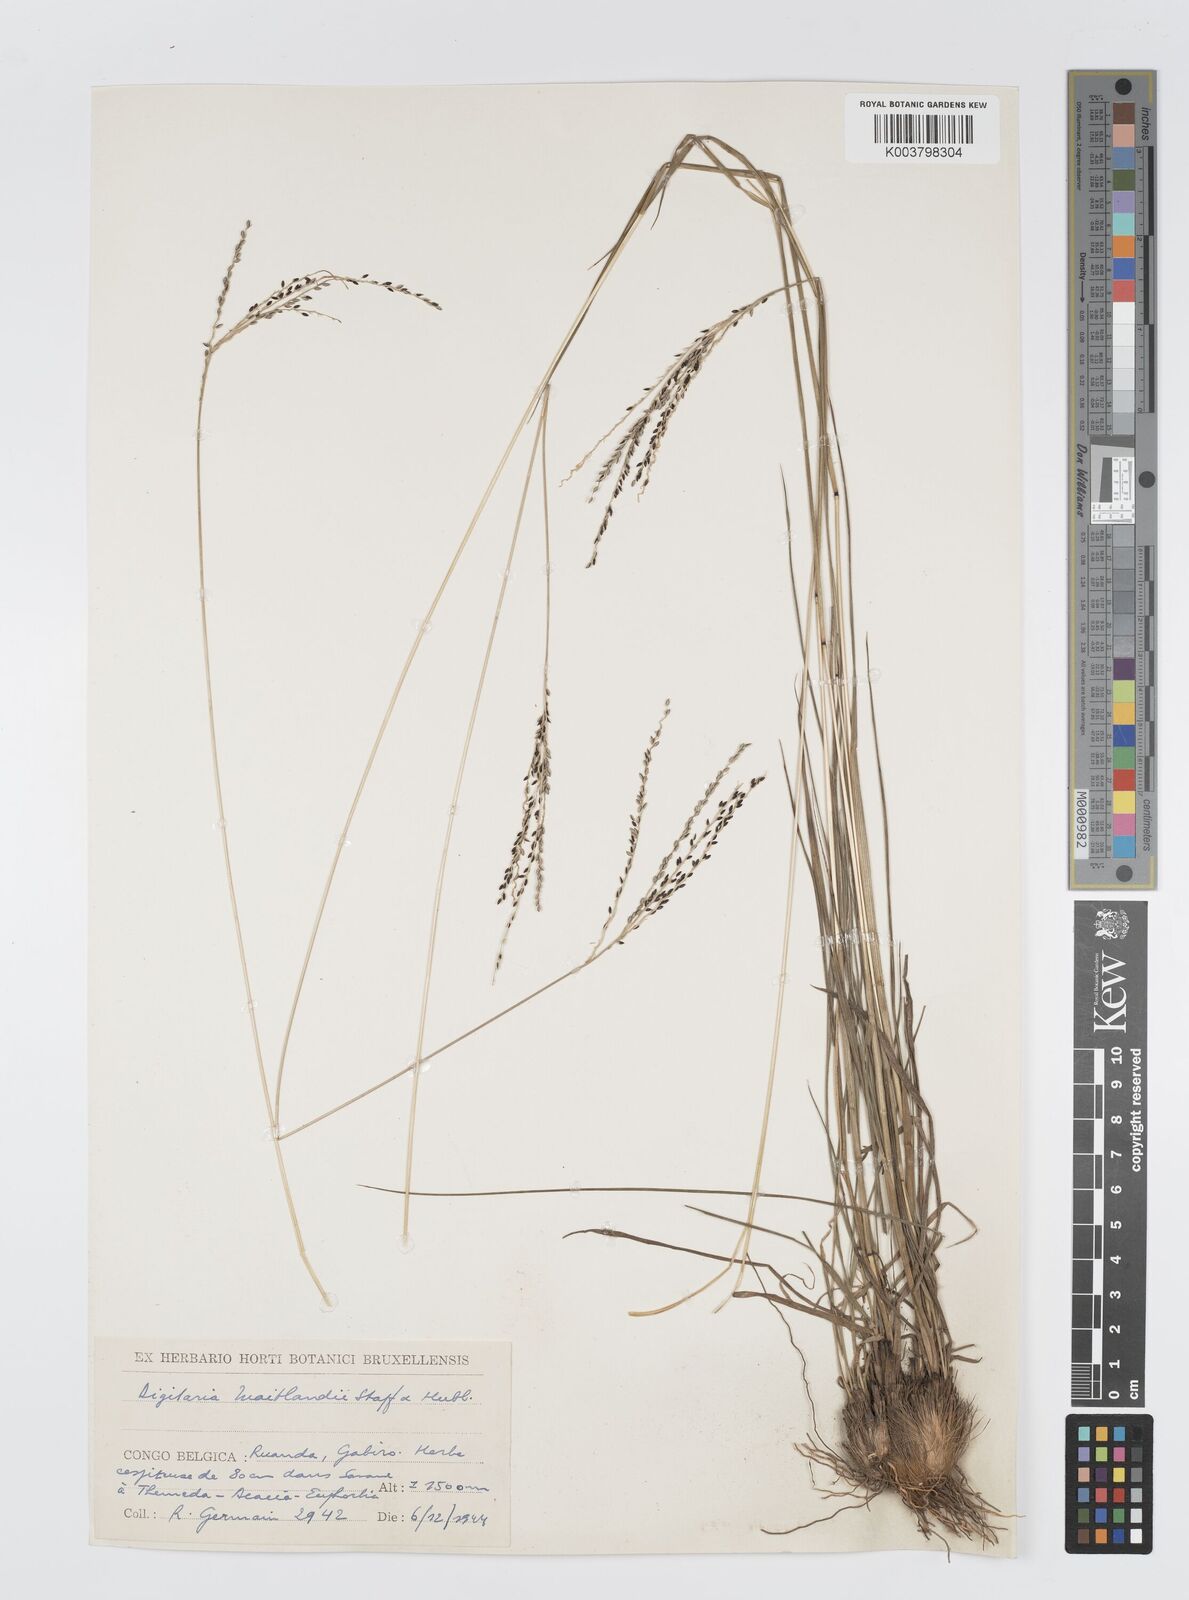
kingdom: Plantae
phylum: Tracheophyta
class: Liliopsida
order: Poales
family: Poaceae
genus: Digitaria
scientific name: Digitaria maitlandii
